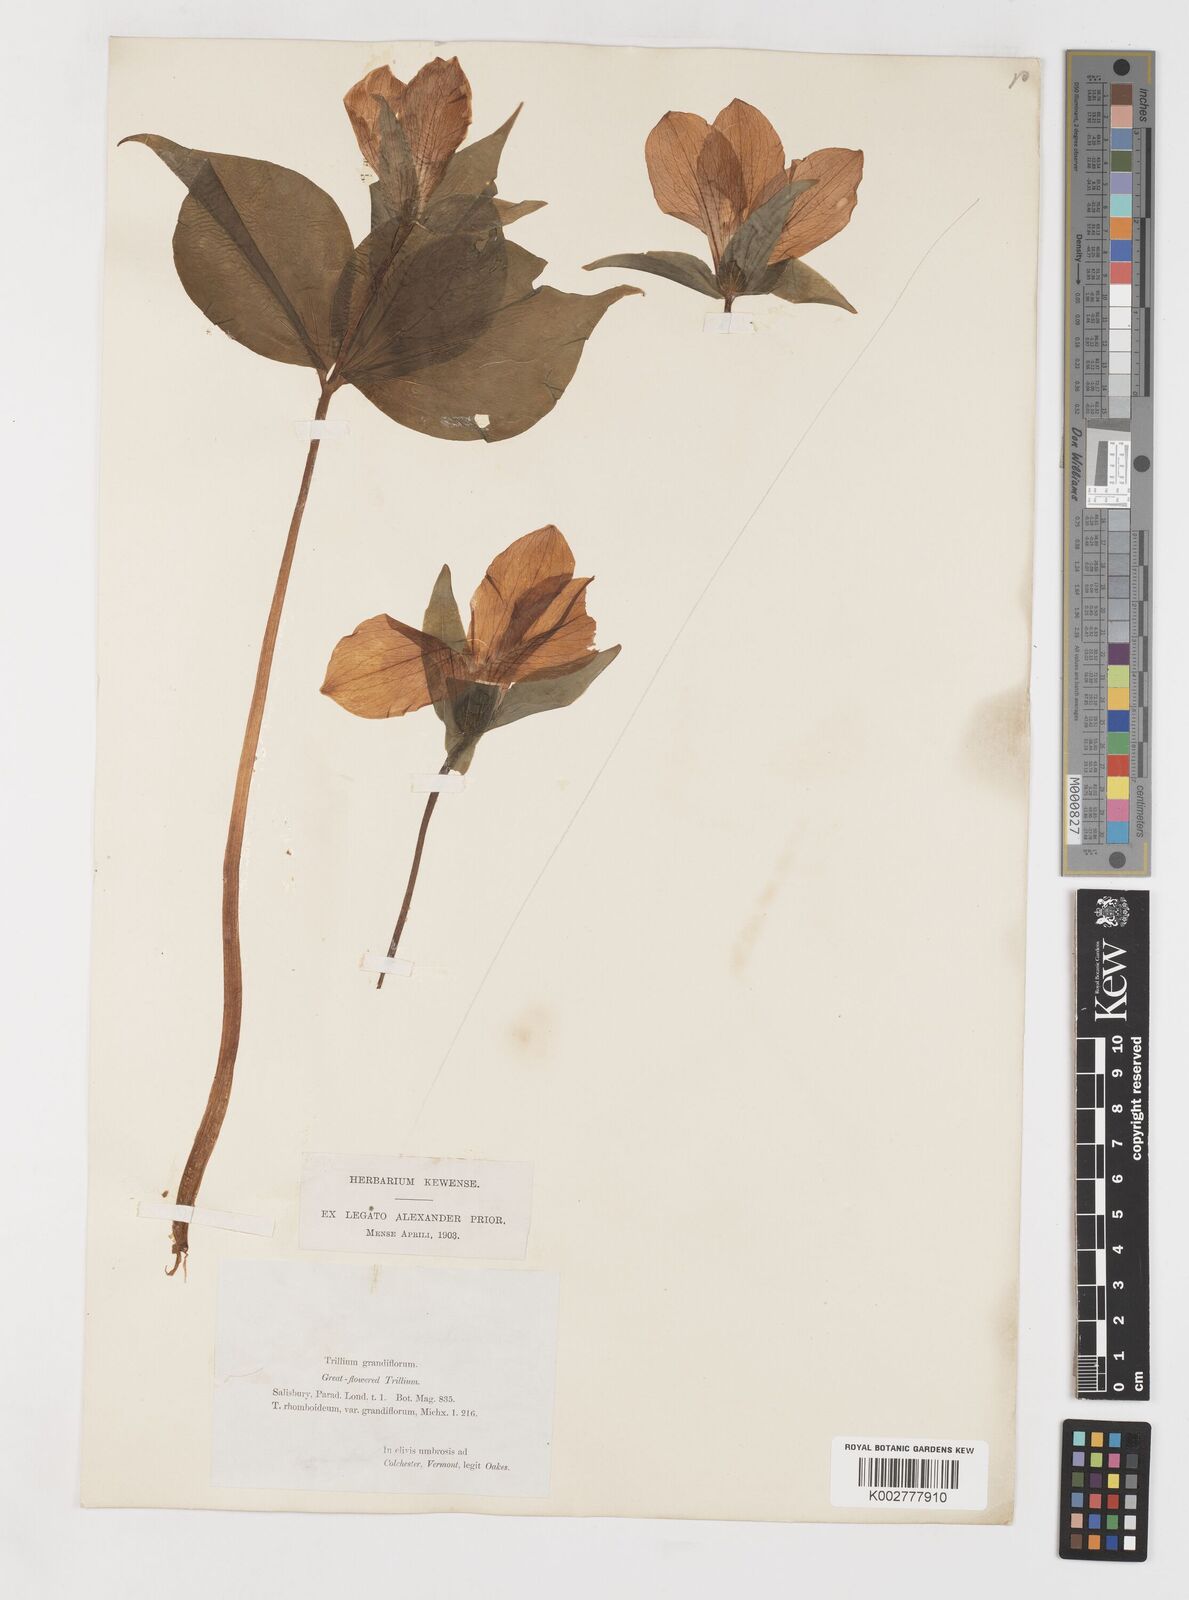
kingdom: Plantae
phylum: Tracheophyta
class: Liliopsida
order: Liliales
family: Melanthiaceae
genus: Trillium
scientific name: Trillium grandiflorum
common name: Great white trillium
